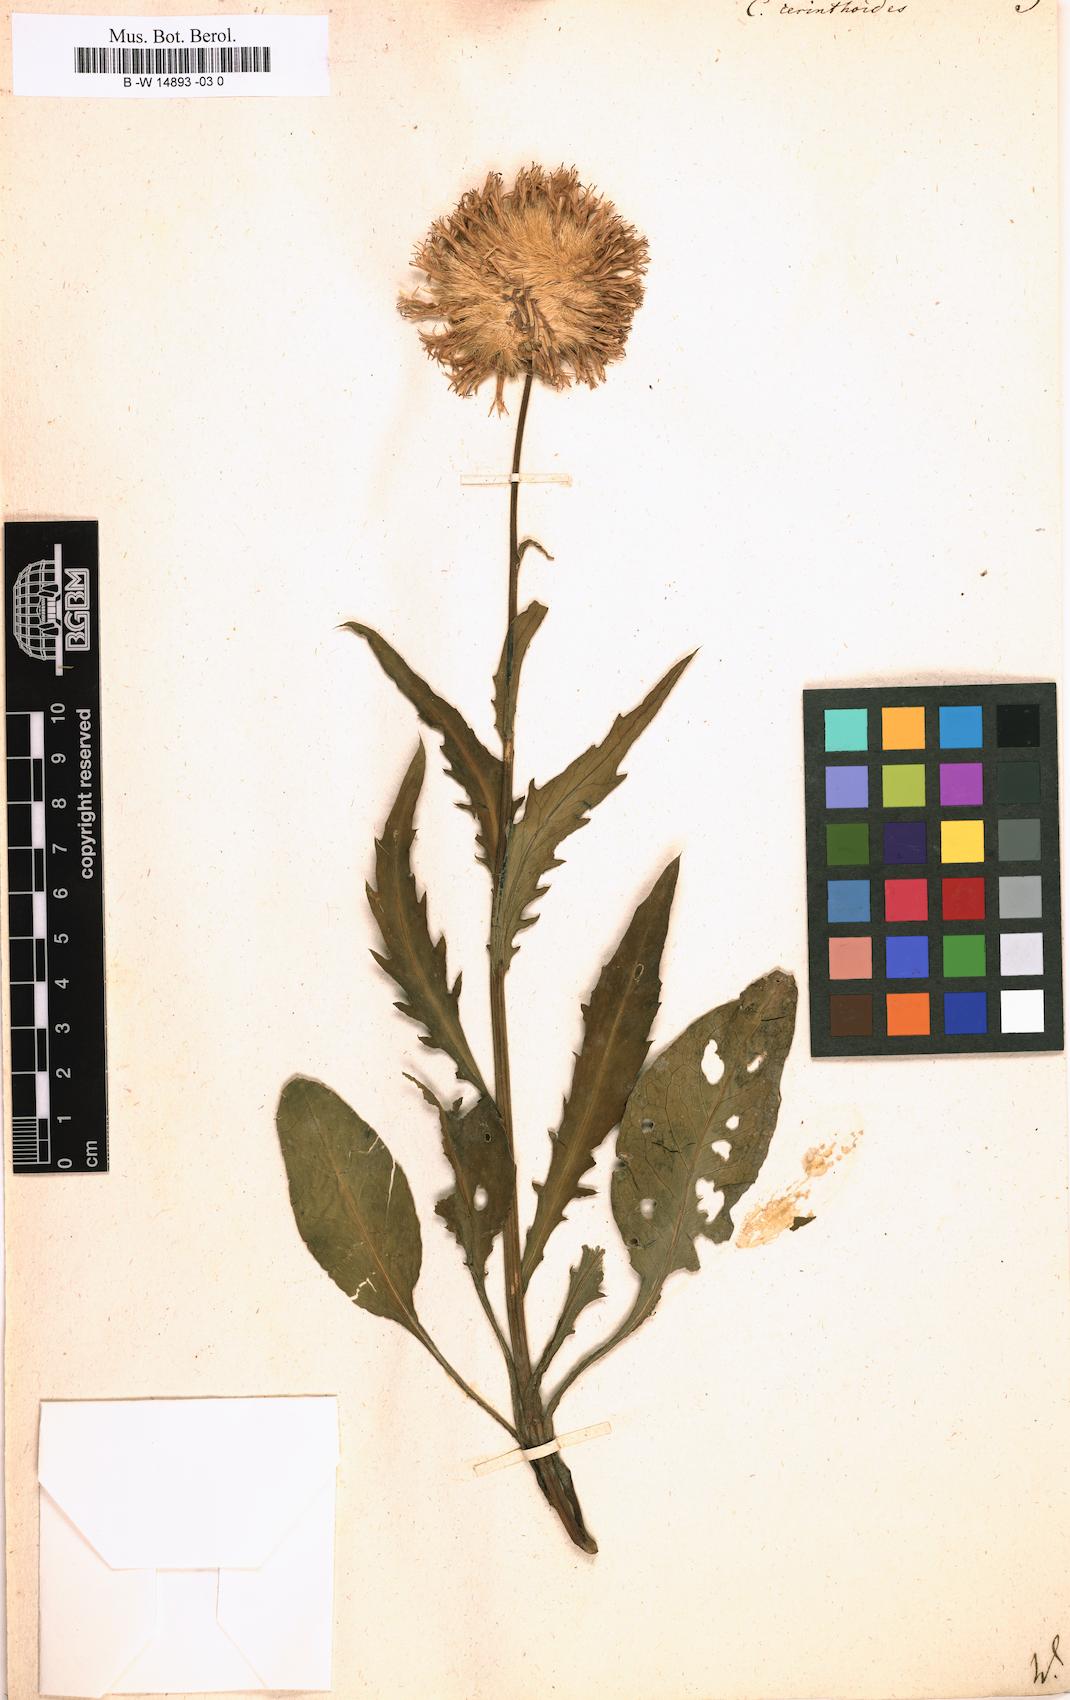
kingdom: Plantae
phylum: Tracheophyta
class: Magnoliopsida
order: Asterales
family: Asteraceae
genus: Klasea
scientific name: Klasea nudicaulis
